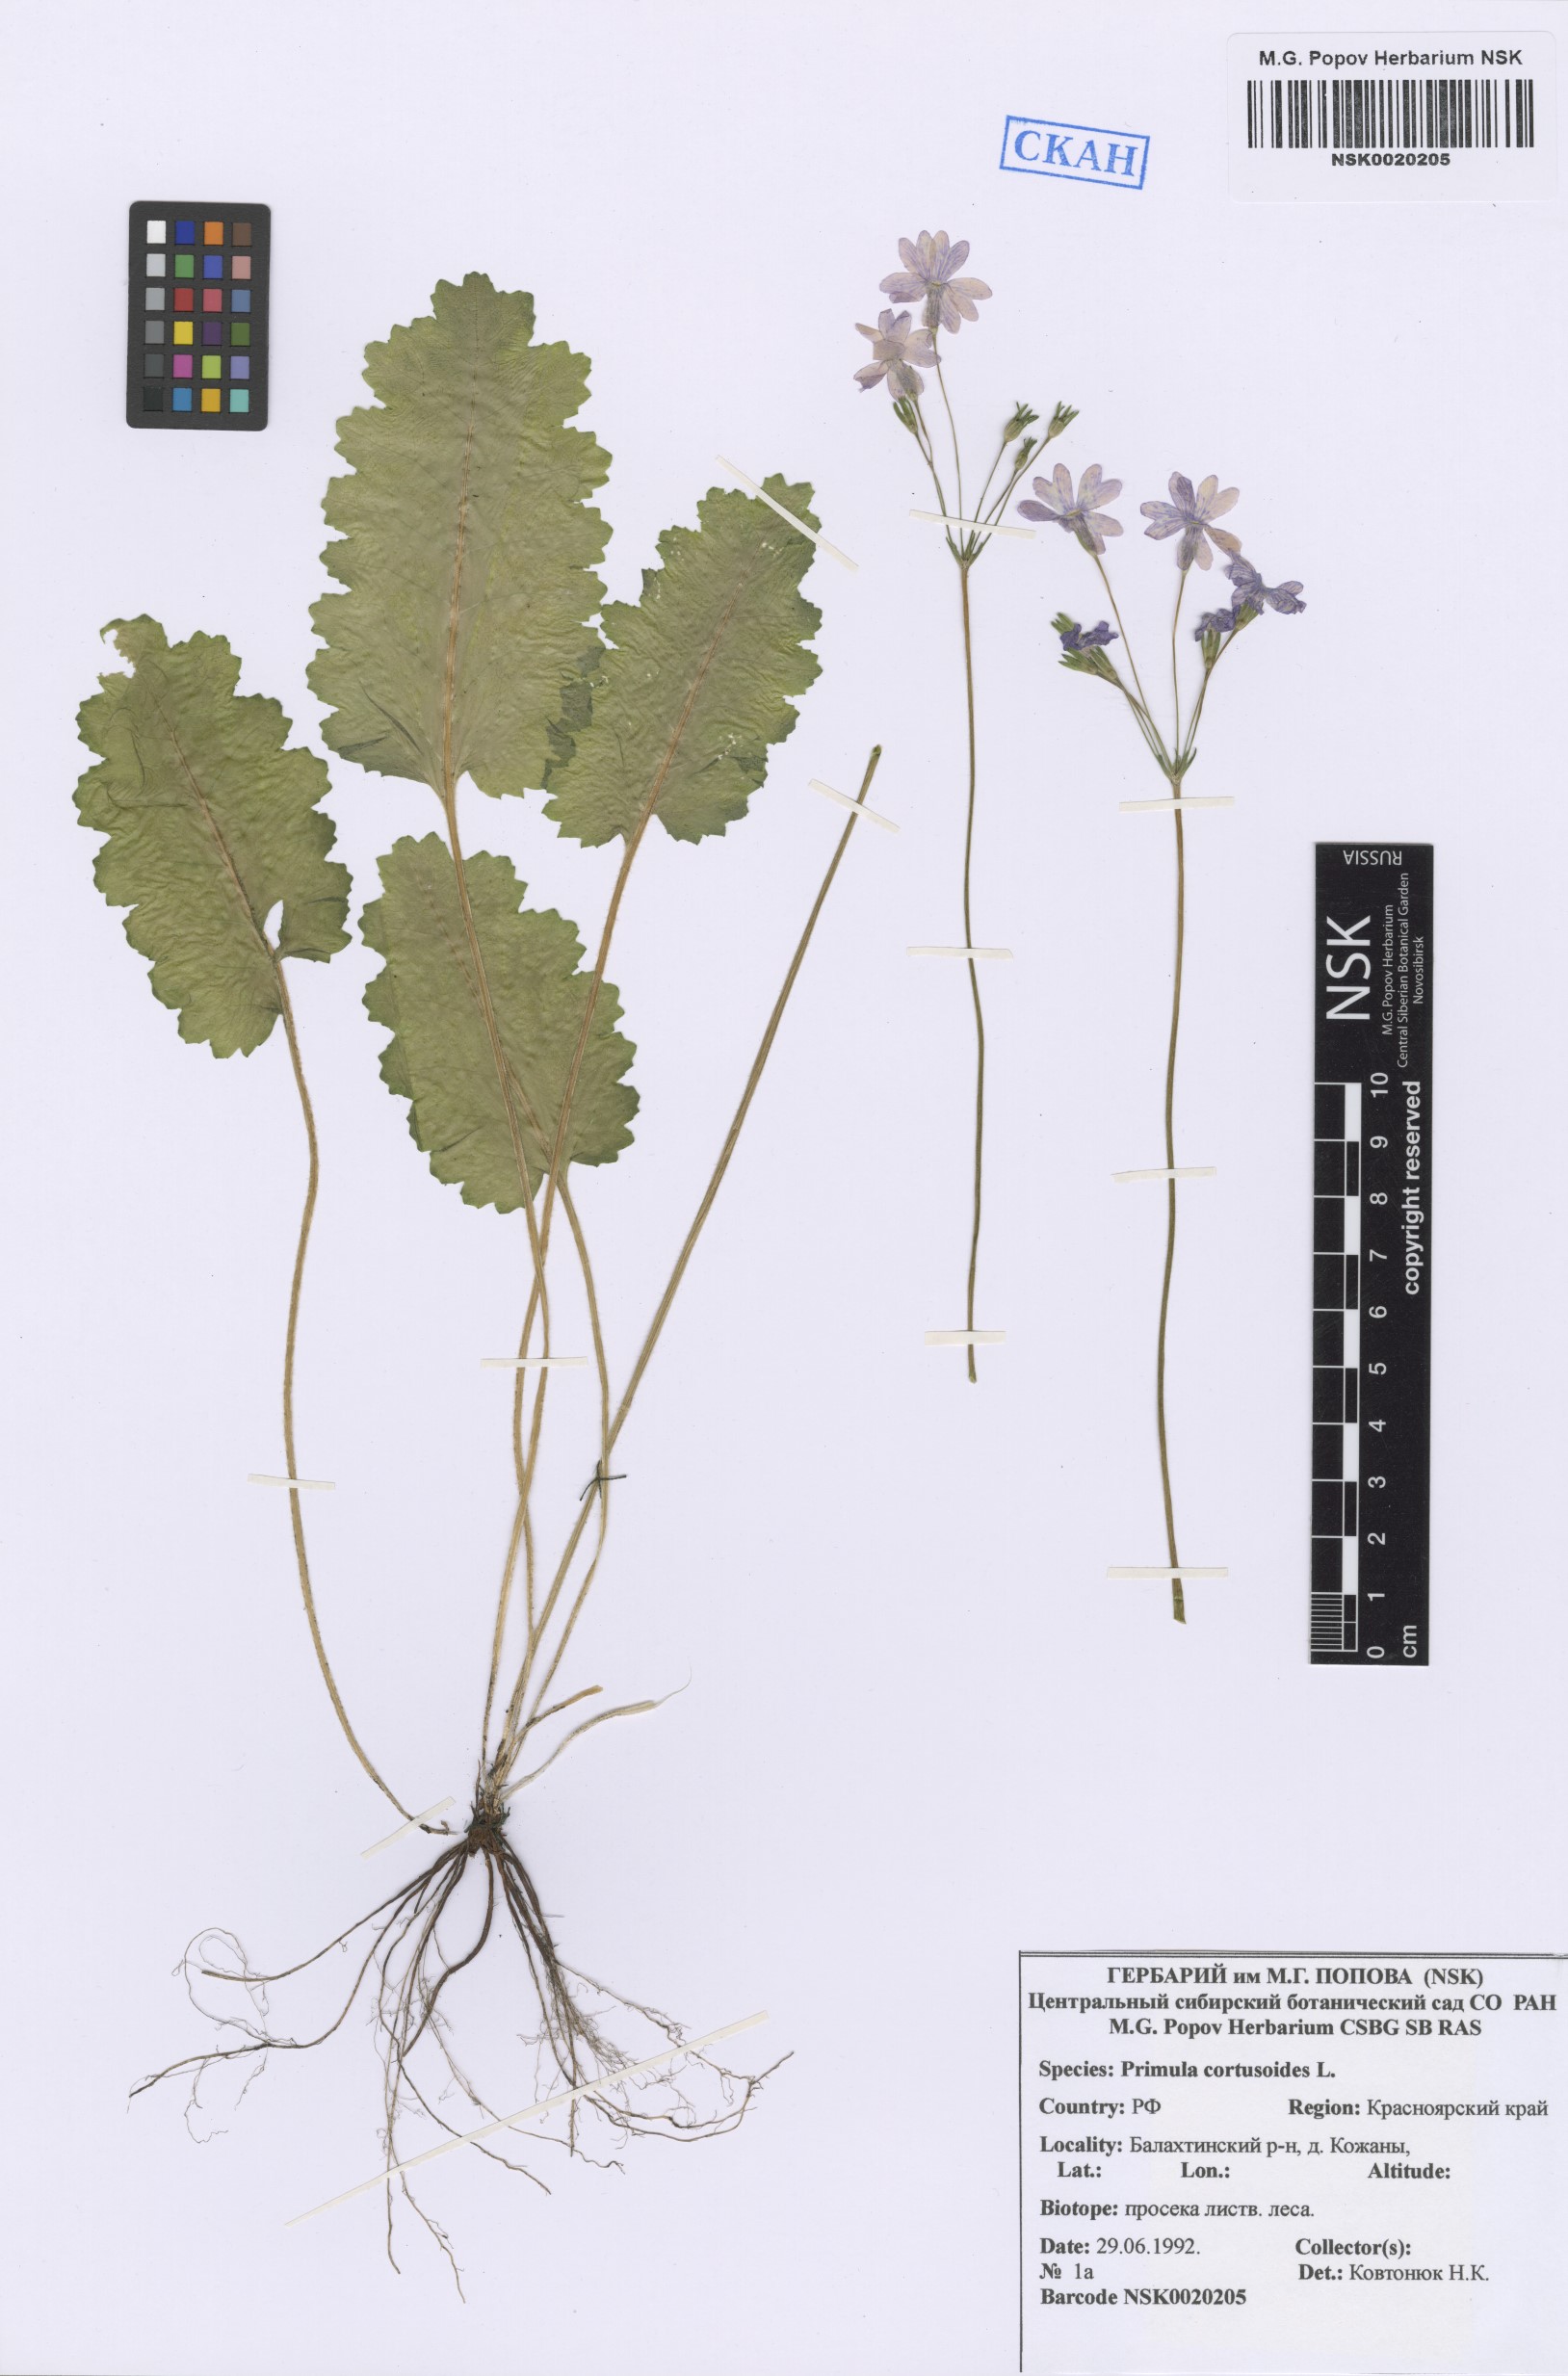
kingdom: Plantae
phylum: Tracheophyta
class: Magnoliopsida
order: Ericales
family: Primulaceae
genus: Primula
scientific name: Primula cortusoides
